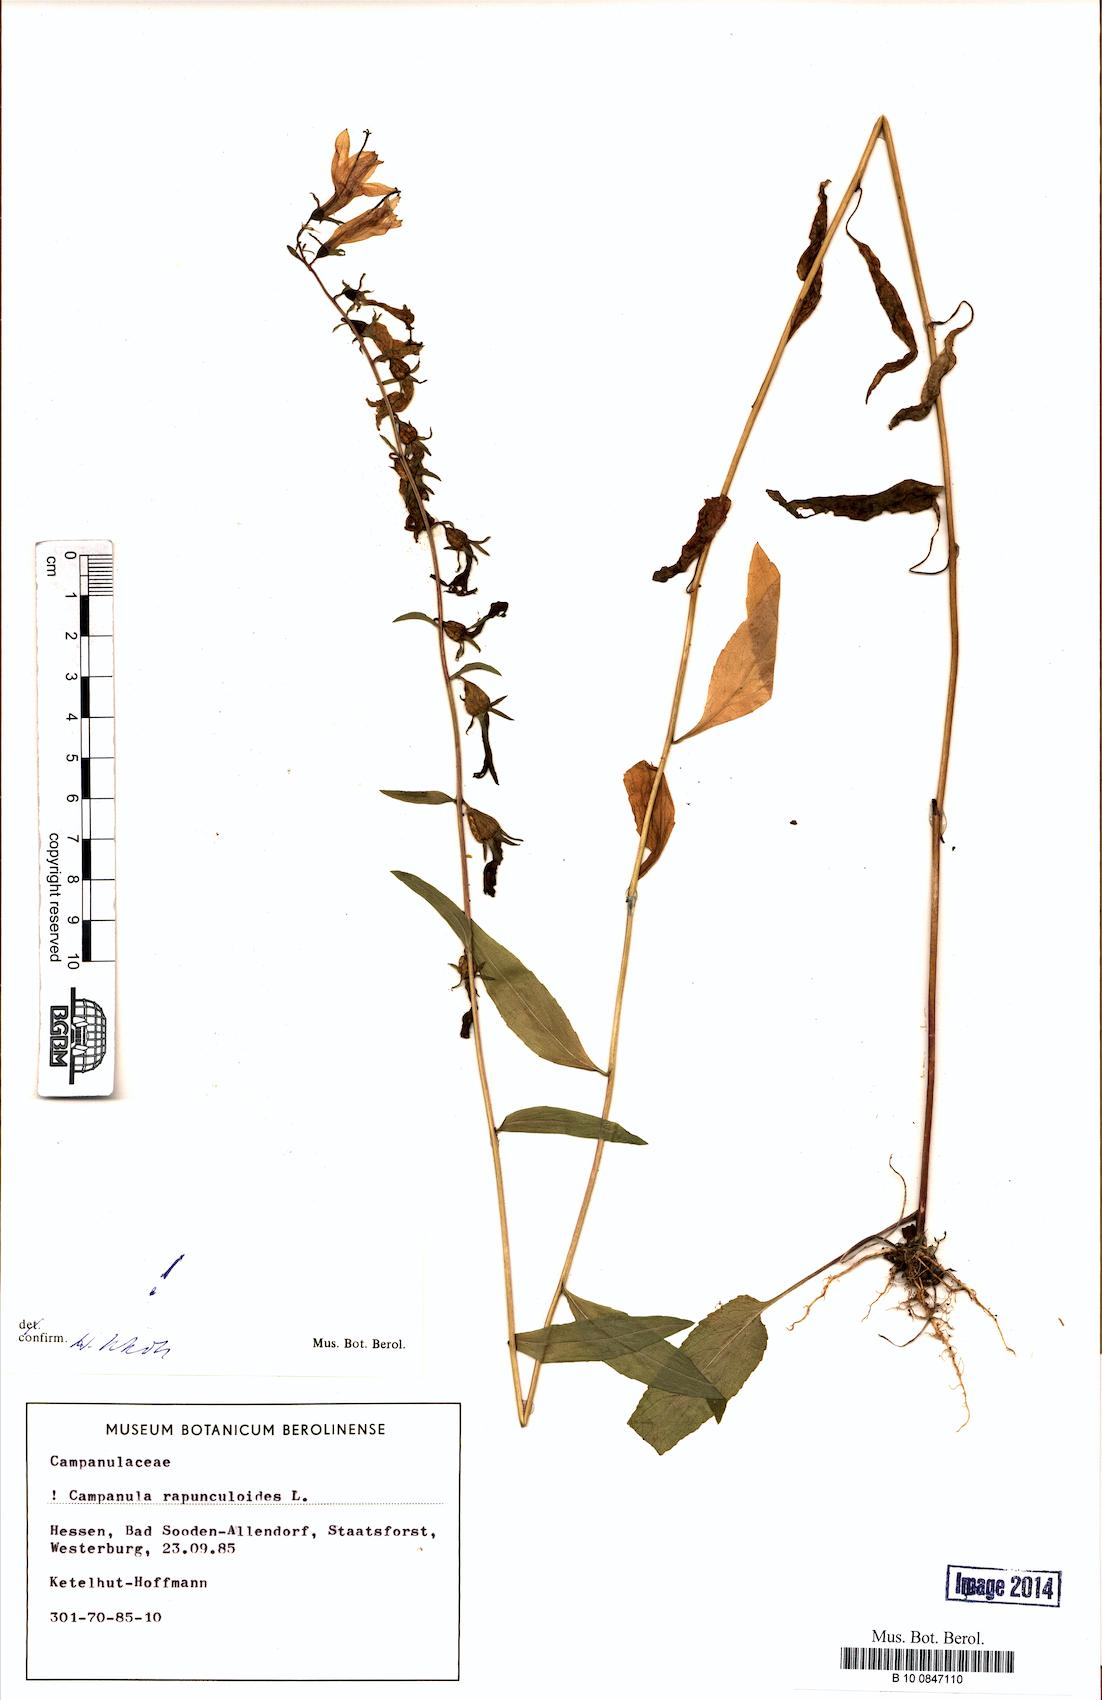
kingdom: Plantae
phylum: Tracheophyta
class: Magnoliopsida
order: Asterales
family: Campanulaceae
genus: Campanula
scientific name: Campanula rapunculoides
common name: Creeping bellflower
